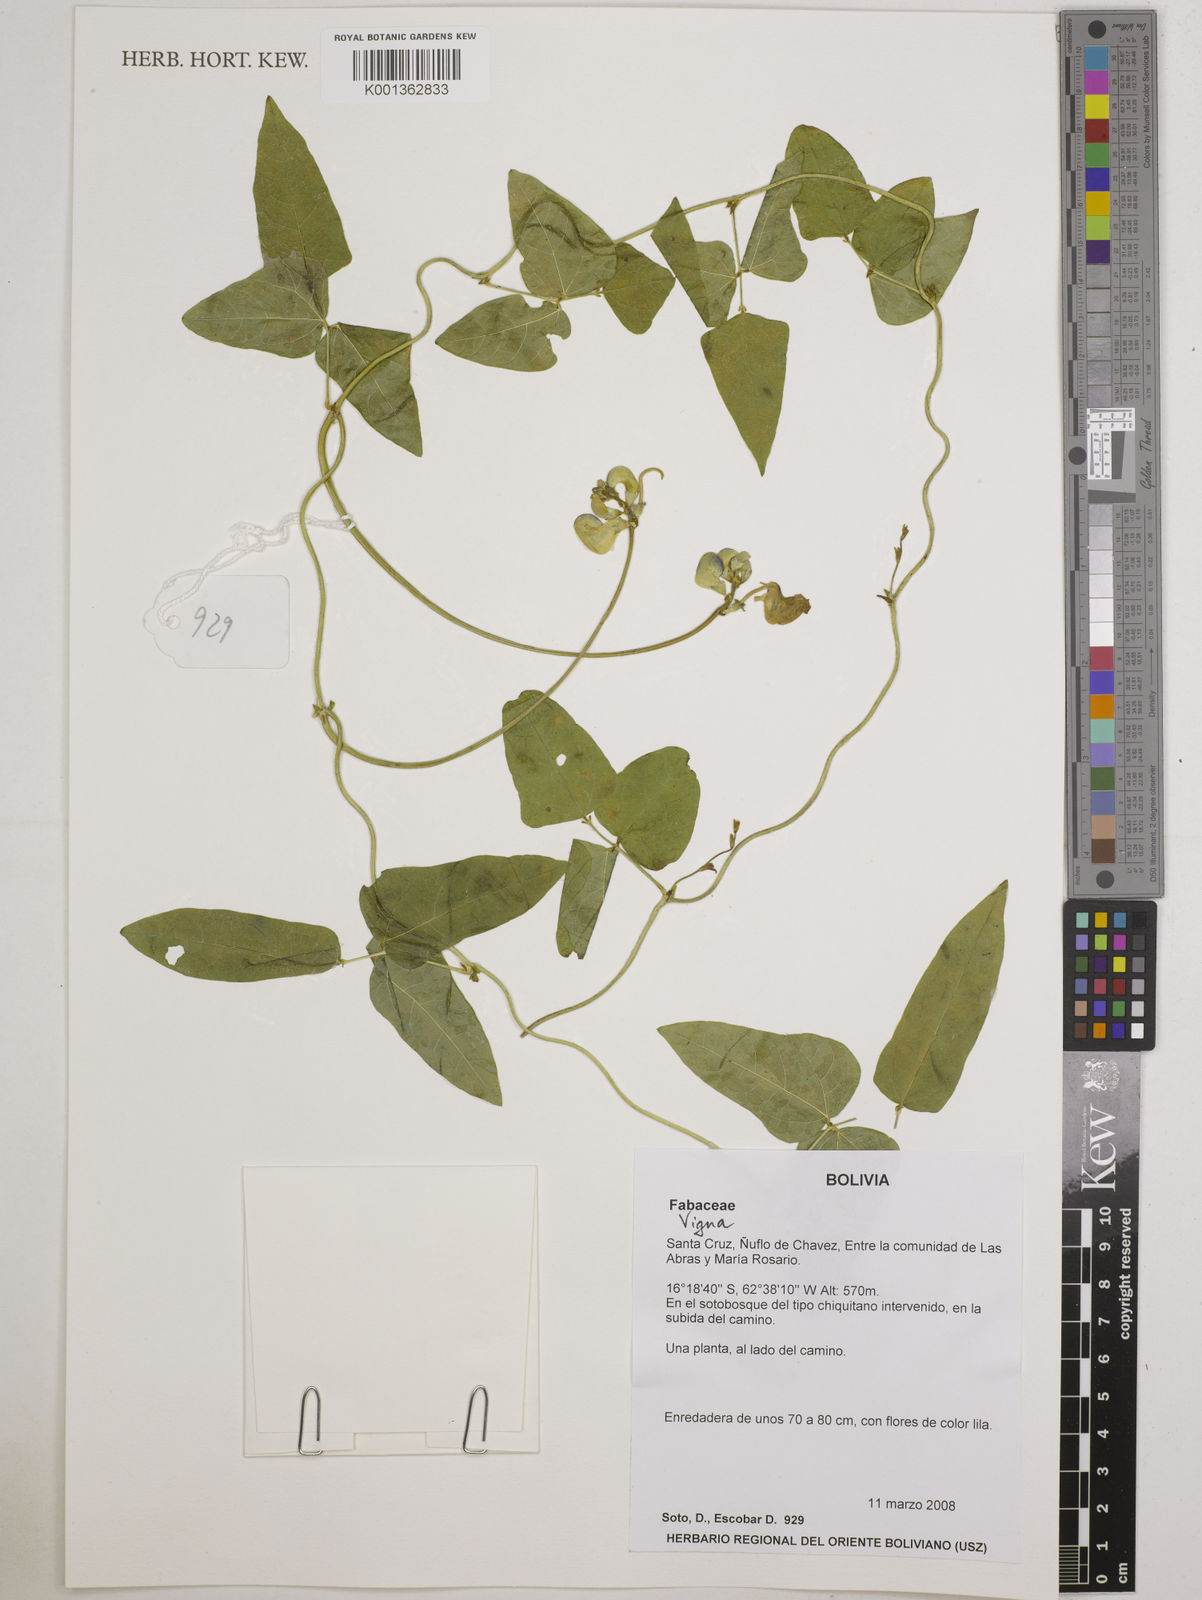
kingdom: Plantae
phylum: Tracheophyta
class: Magnoliopsida
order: Fabales
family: Fabaceae
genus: Vigna
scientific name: Vigna
